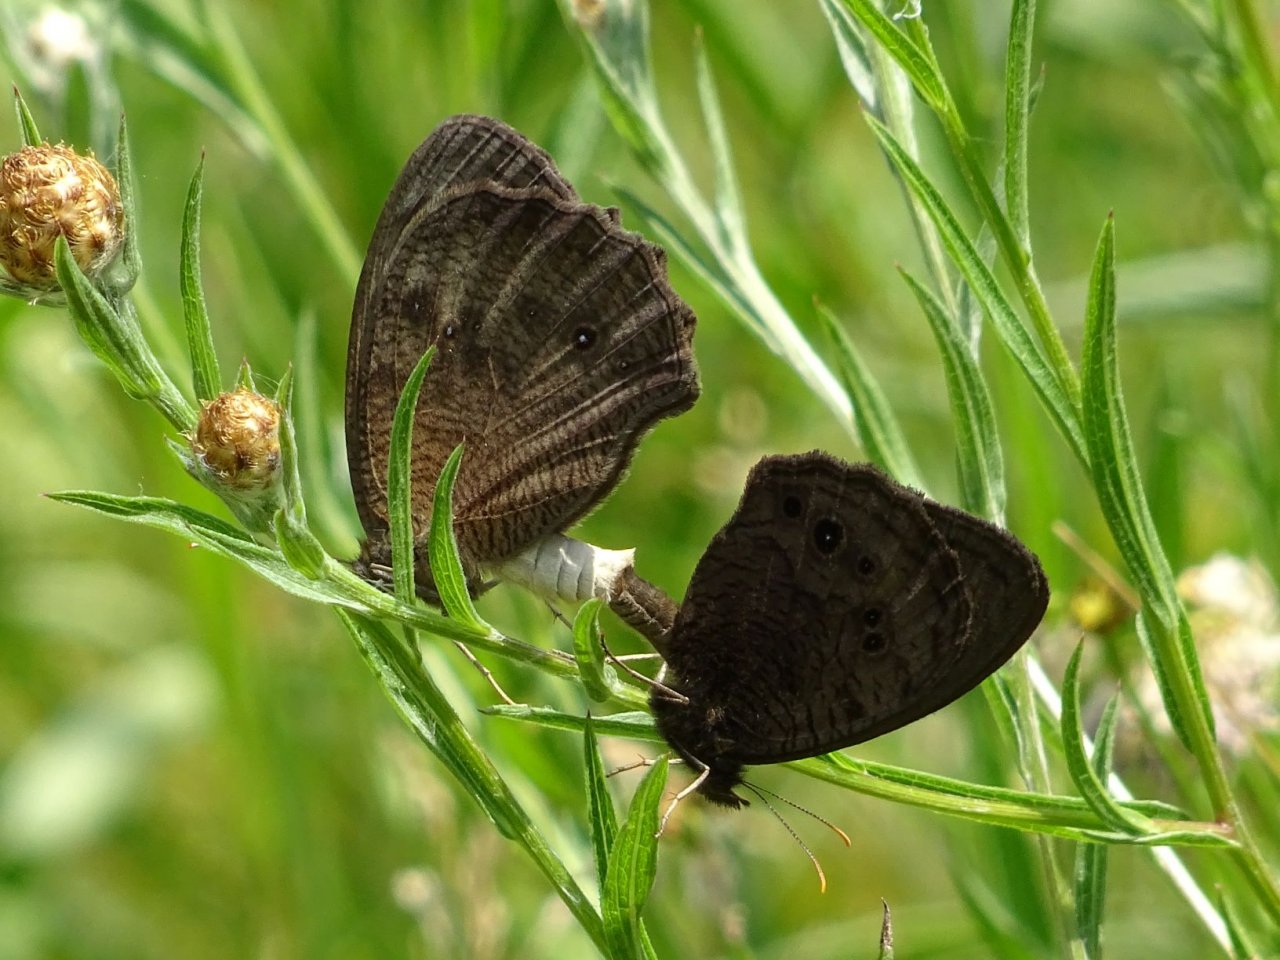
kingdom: Animalia
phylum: Arthropoda
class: Insecta
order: Lepidoptera
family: Nymphalidae
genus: Cercyonis
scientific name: Cercyonis pegala
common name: Common Wood-Nymph
